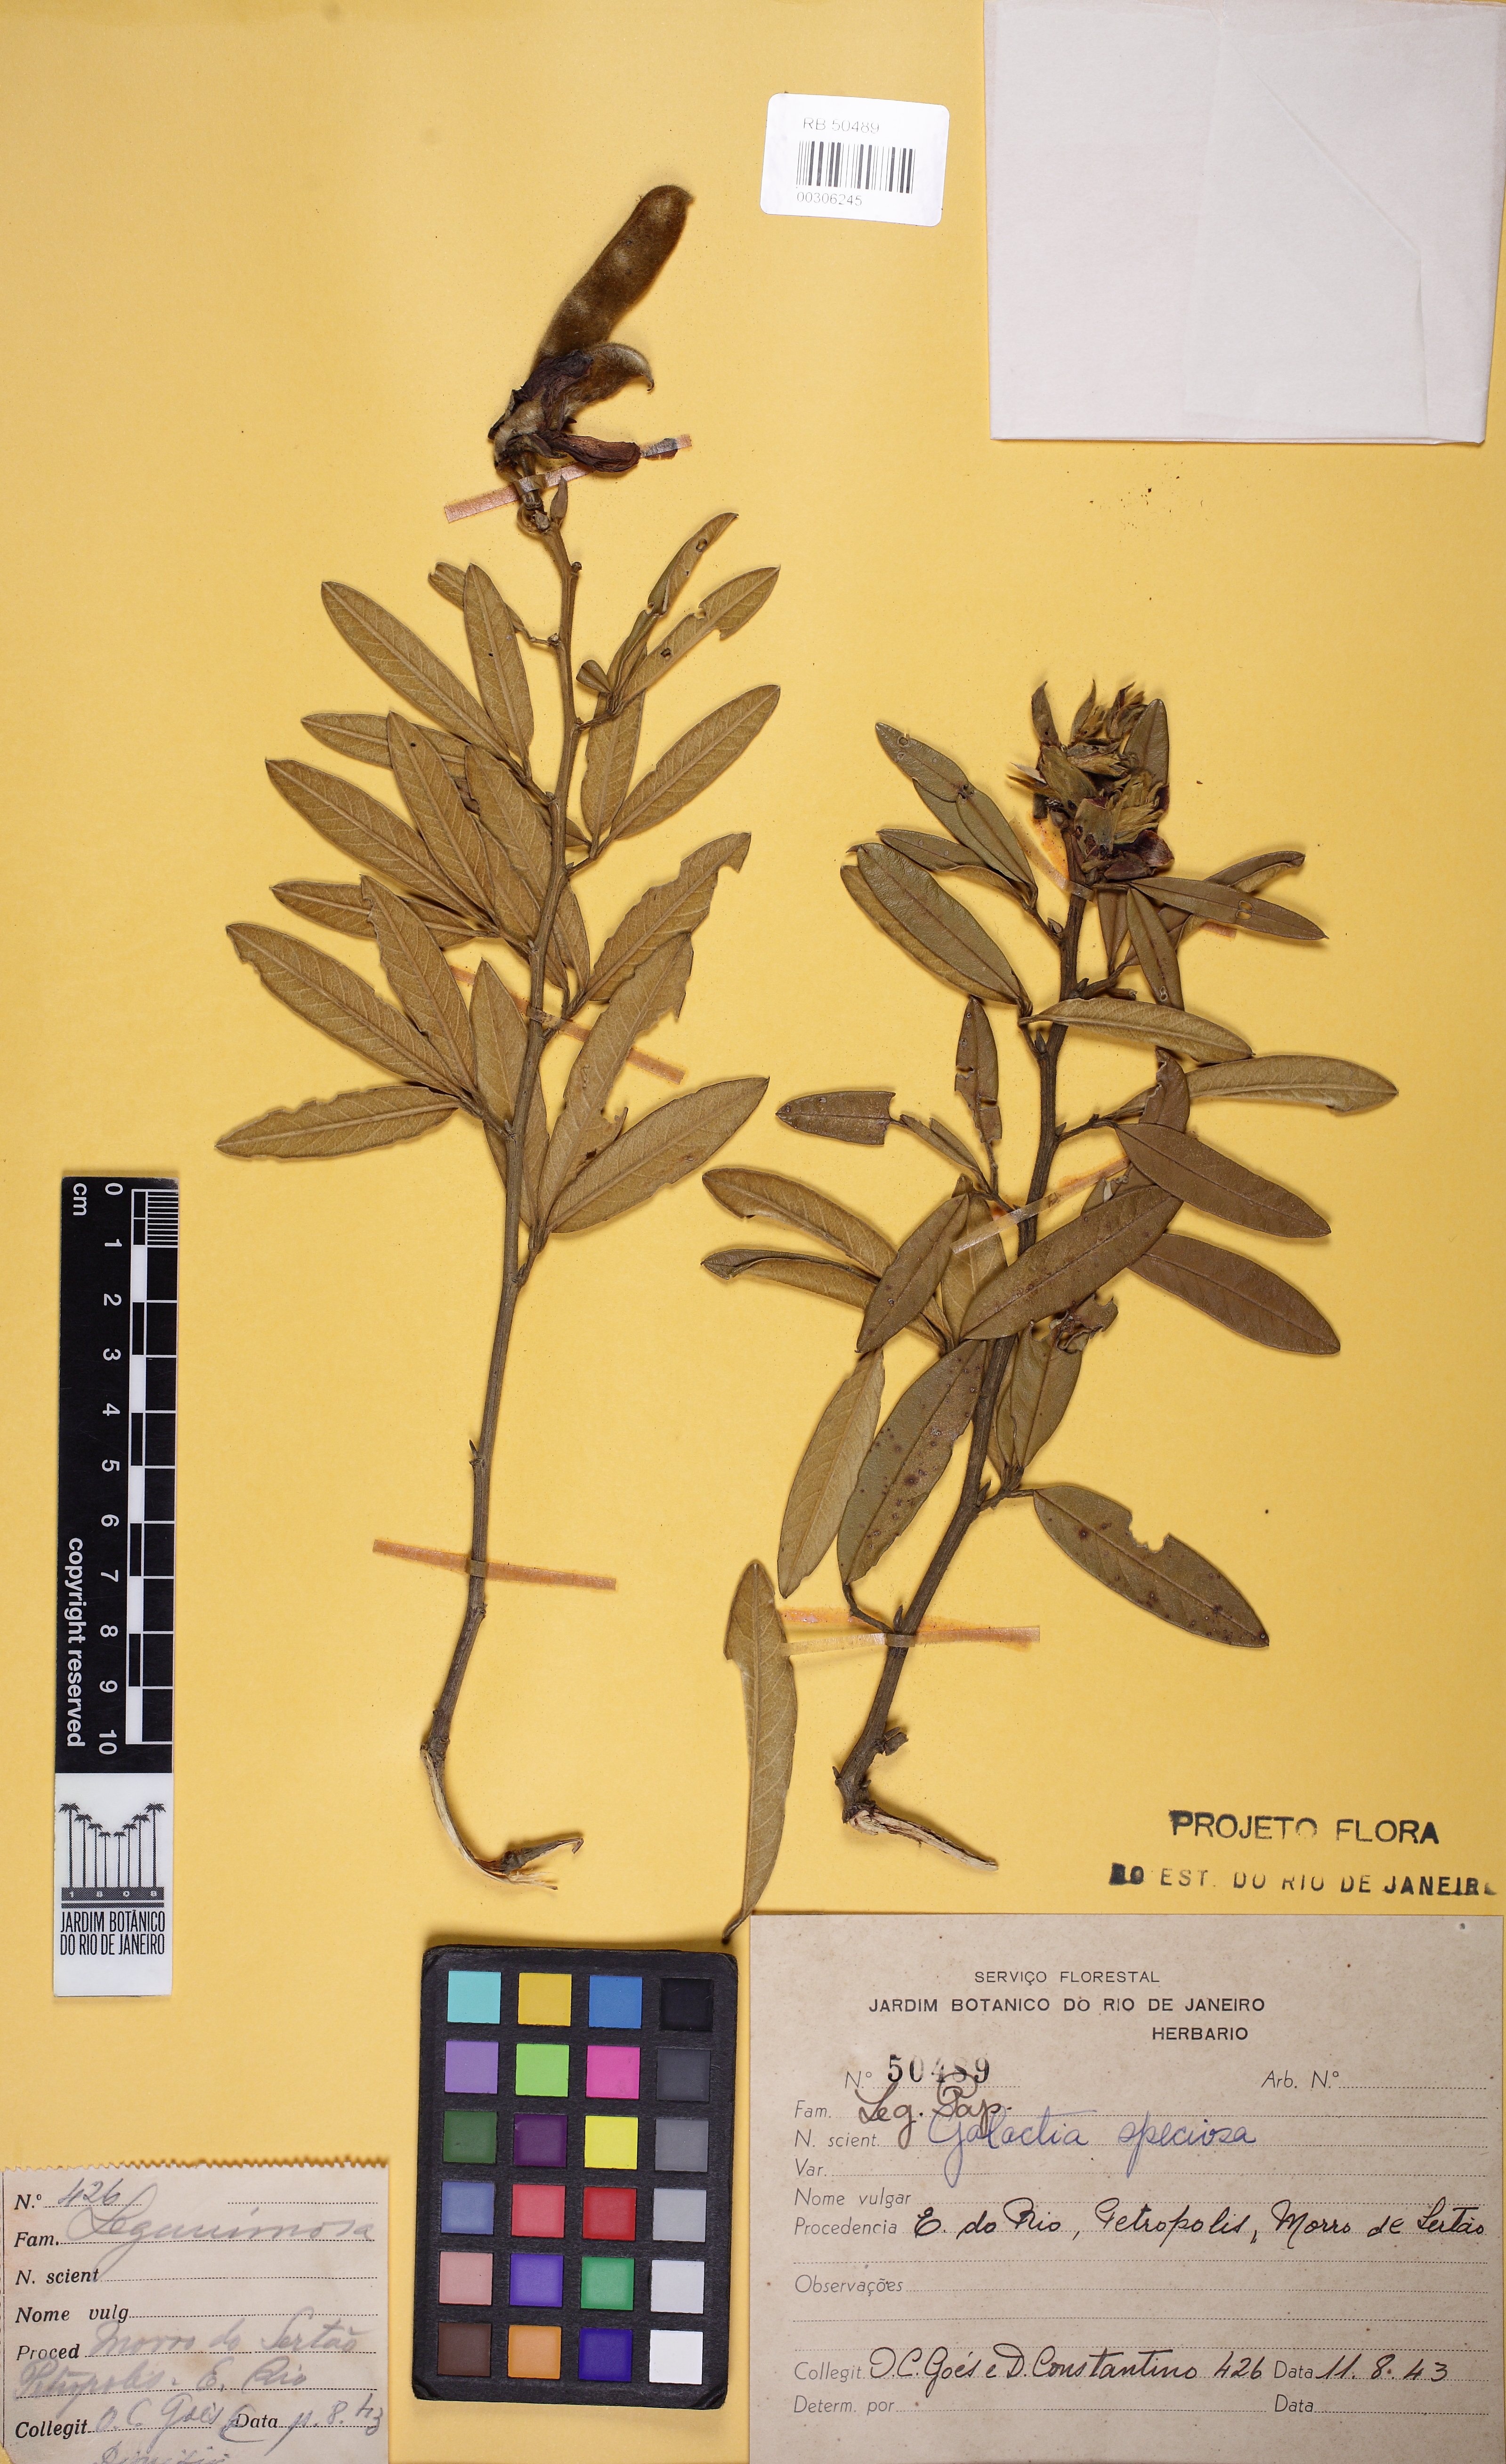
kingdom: Plantae
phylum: Tracheophyta
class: Magnoliopsida
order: Fabales
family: Fabaceae
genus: Collaea
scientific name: Collaea speciosa
